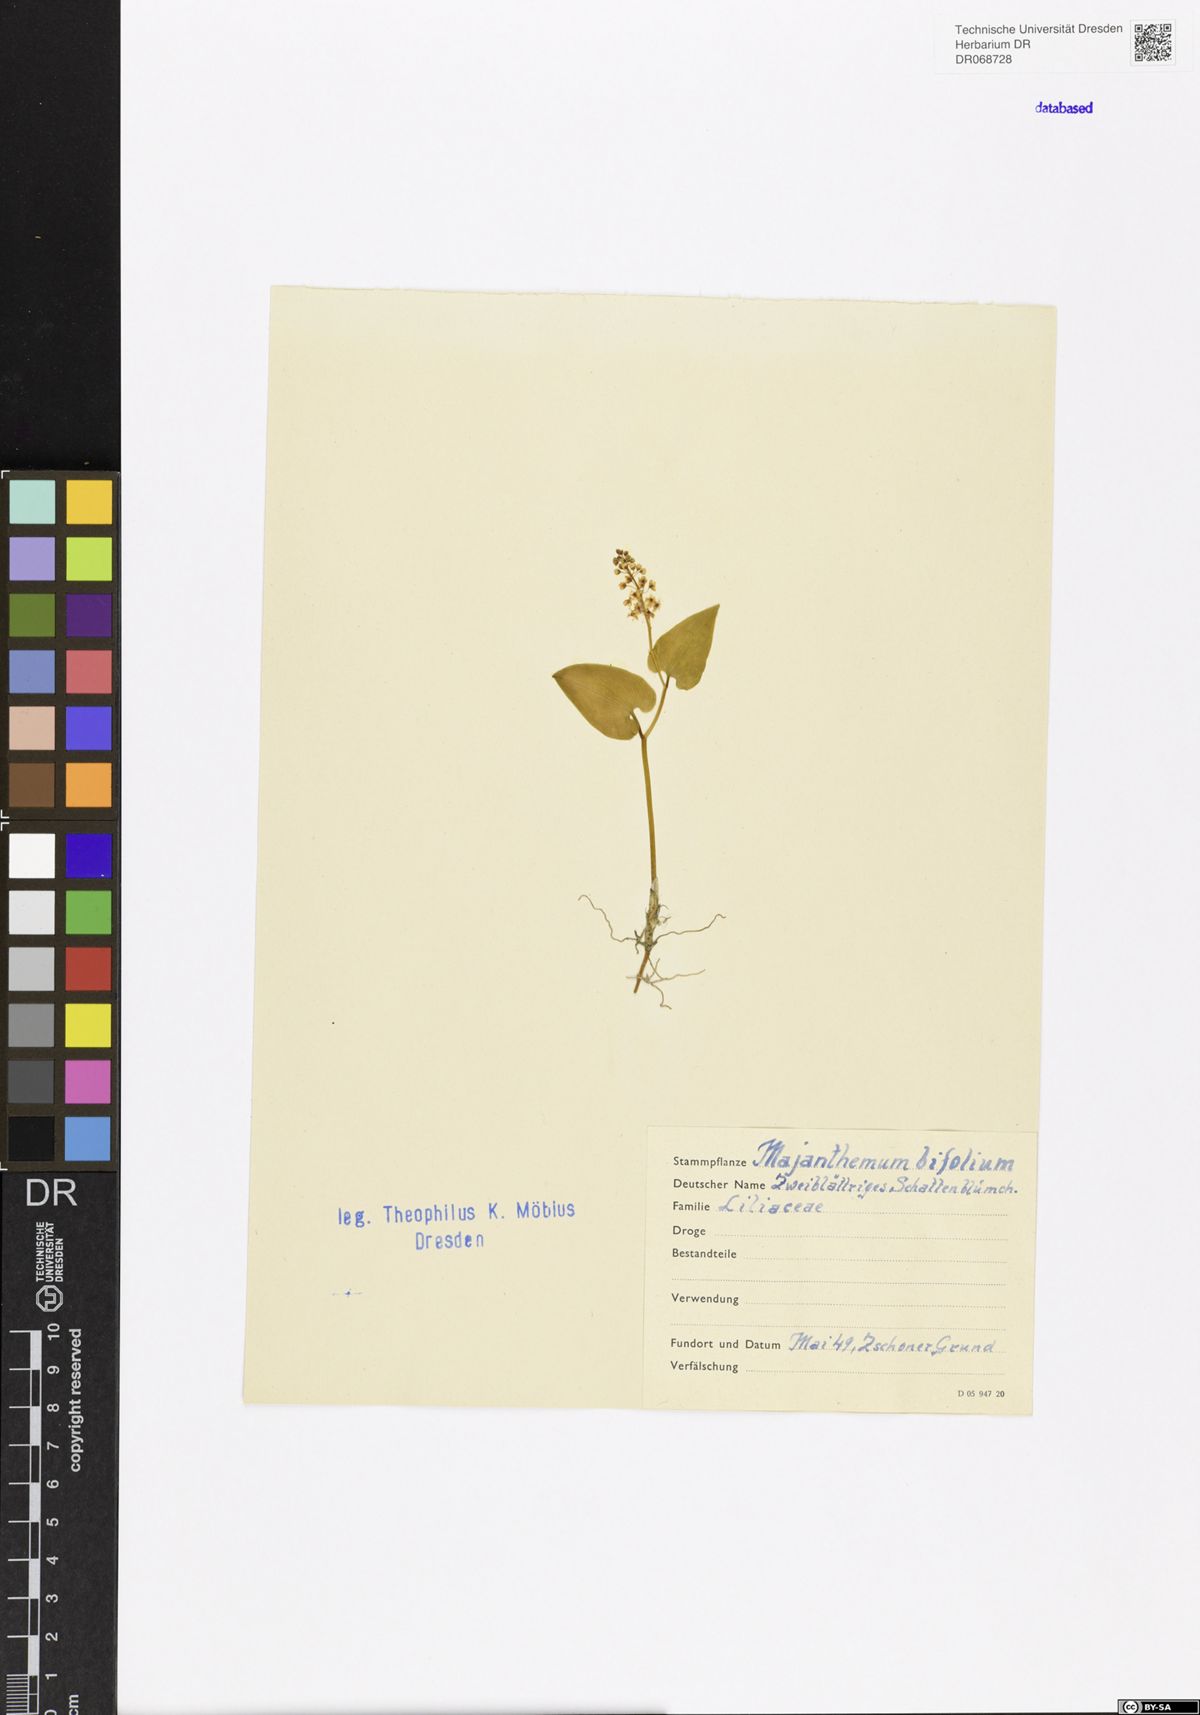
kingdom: Plantae
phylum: Tracheophyta
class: Liliopsida
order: Asparagales
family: Asparagaceae
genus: Maianthemum
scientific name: Maianthemum bifolium
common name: May lily
